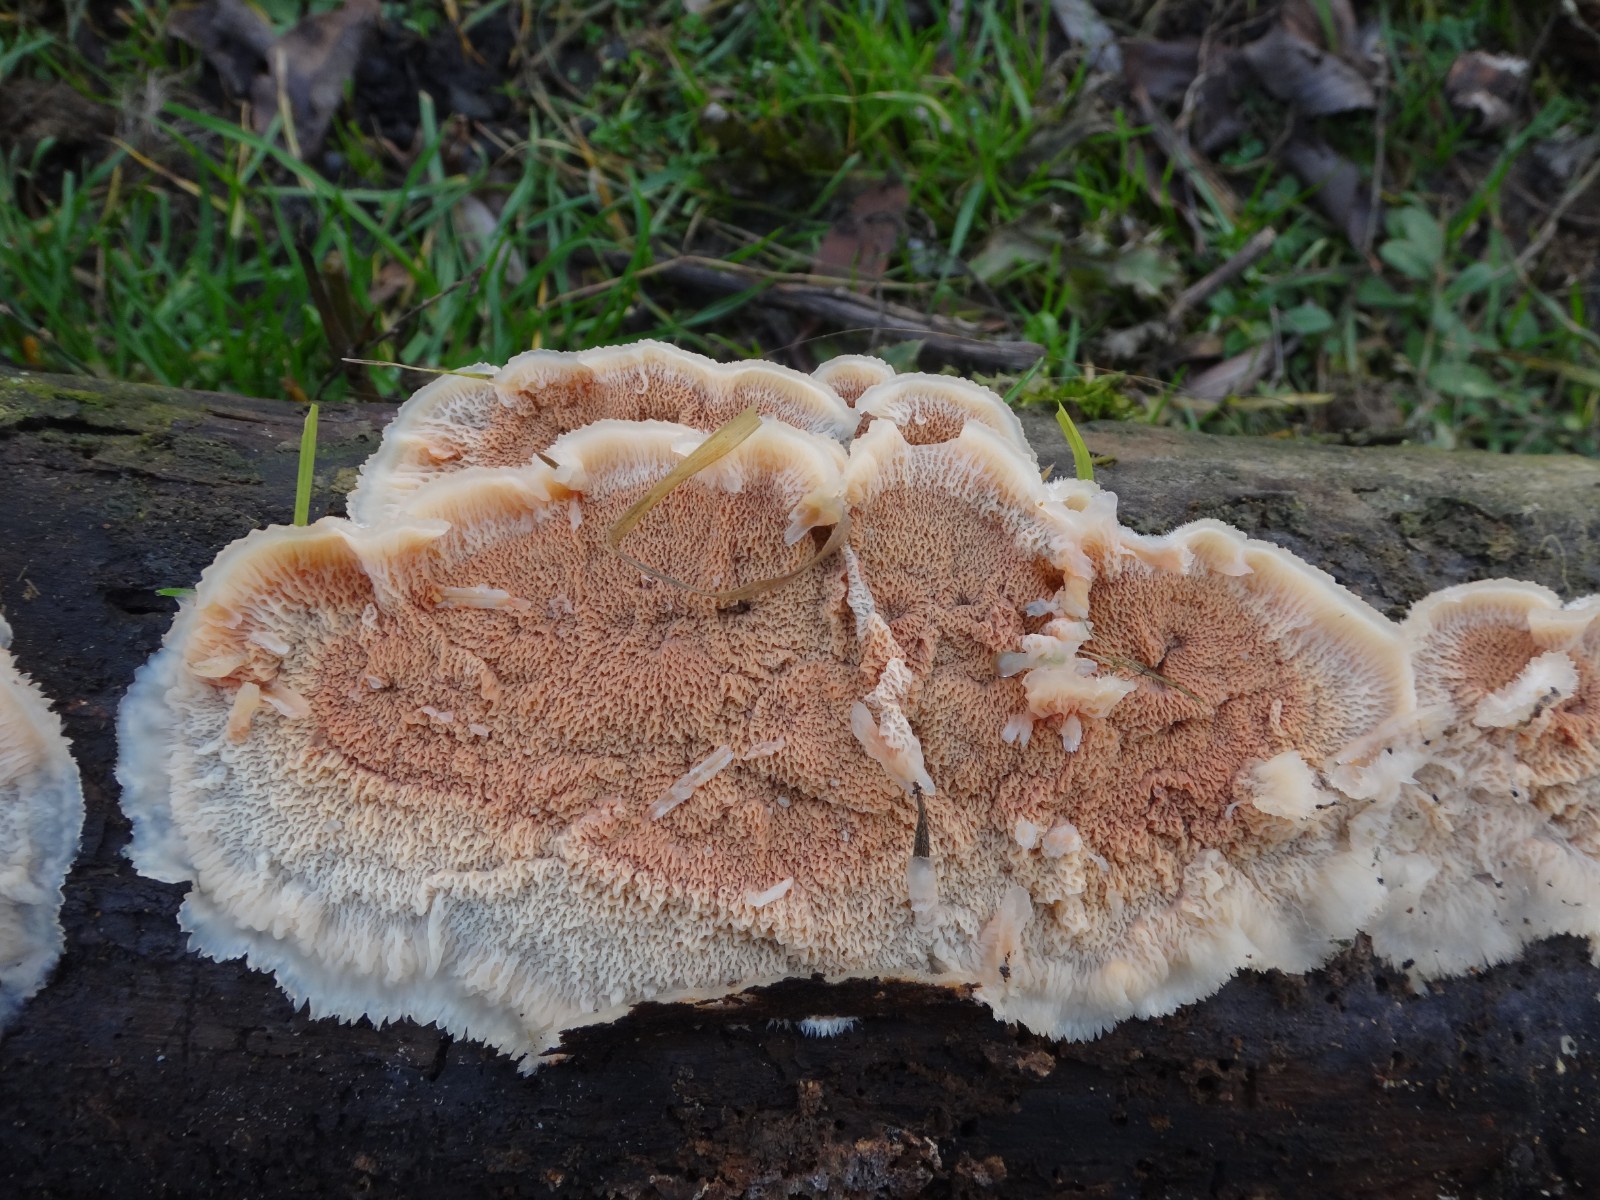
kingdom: Fungi
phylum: Basidiomycota
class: Agaricomycetes
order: Polyporales
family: Meruliaceae
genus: Phlebia
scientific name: Phlebia tremellosa
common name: bævrende åresvamp
